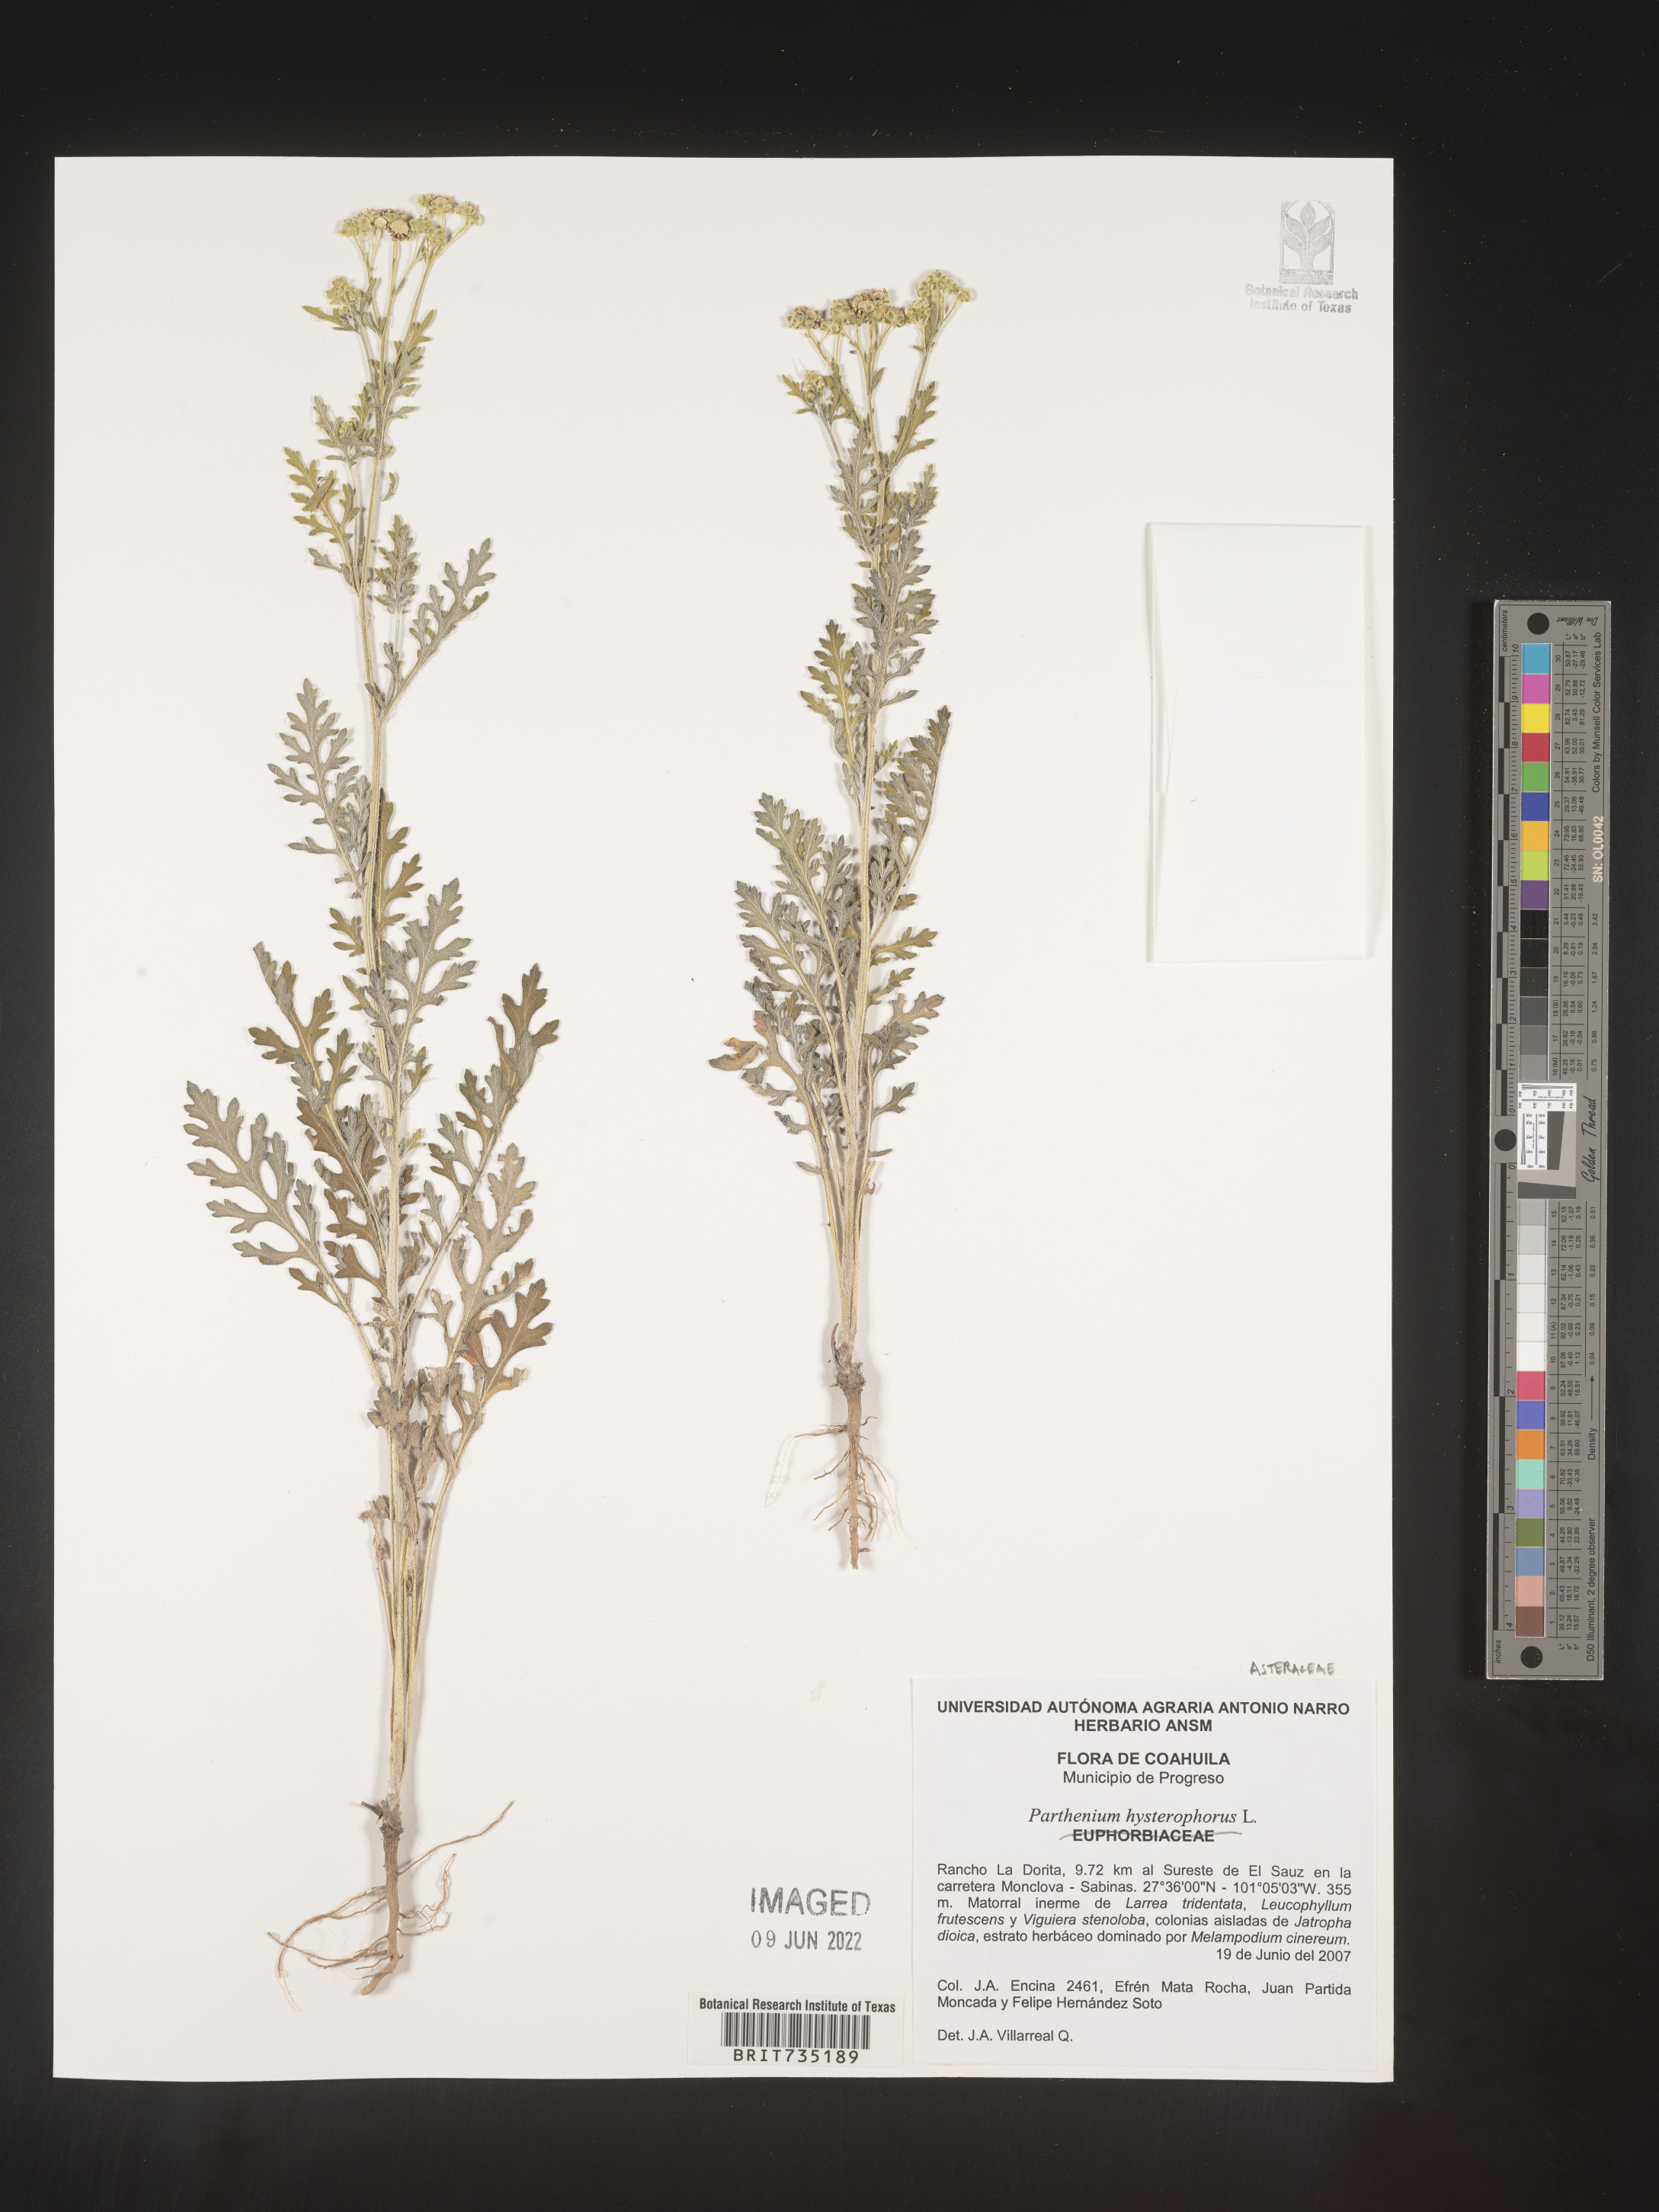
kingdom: Plantae
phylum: Tracheophyta
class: Magnoliopsida
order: Asterales
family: Asteraceae
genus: Parthenium
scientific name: Parthenium hysterophorus
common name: Santa maria feverfew
